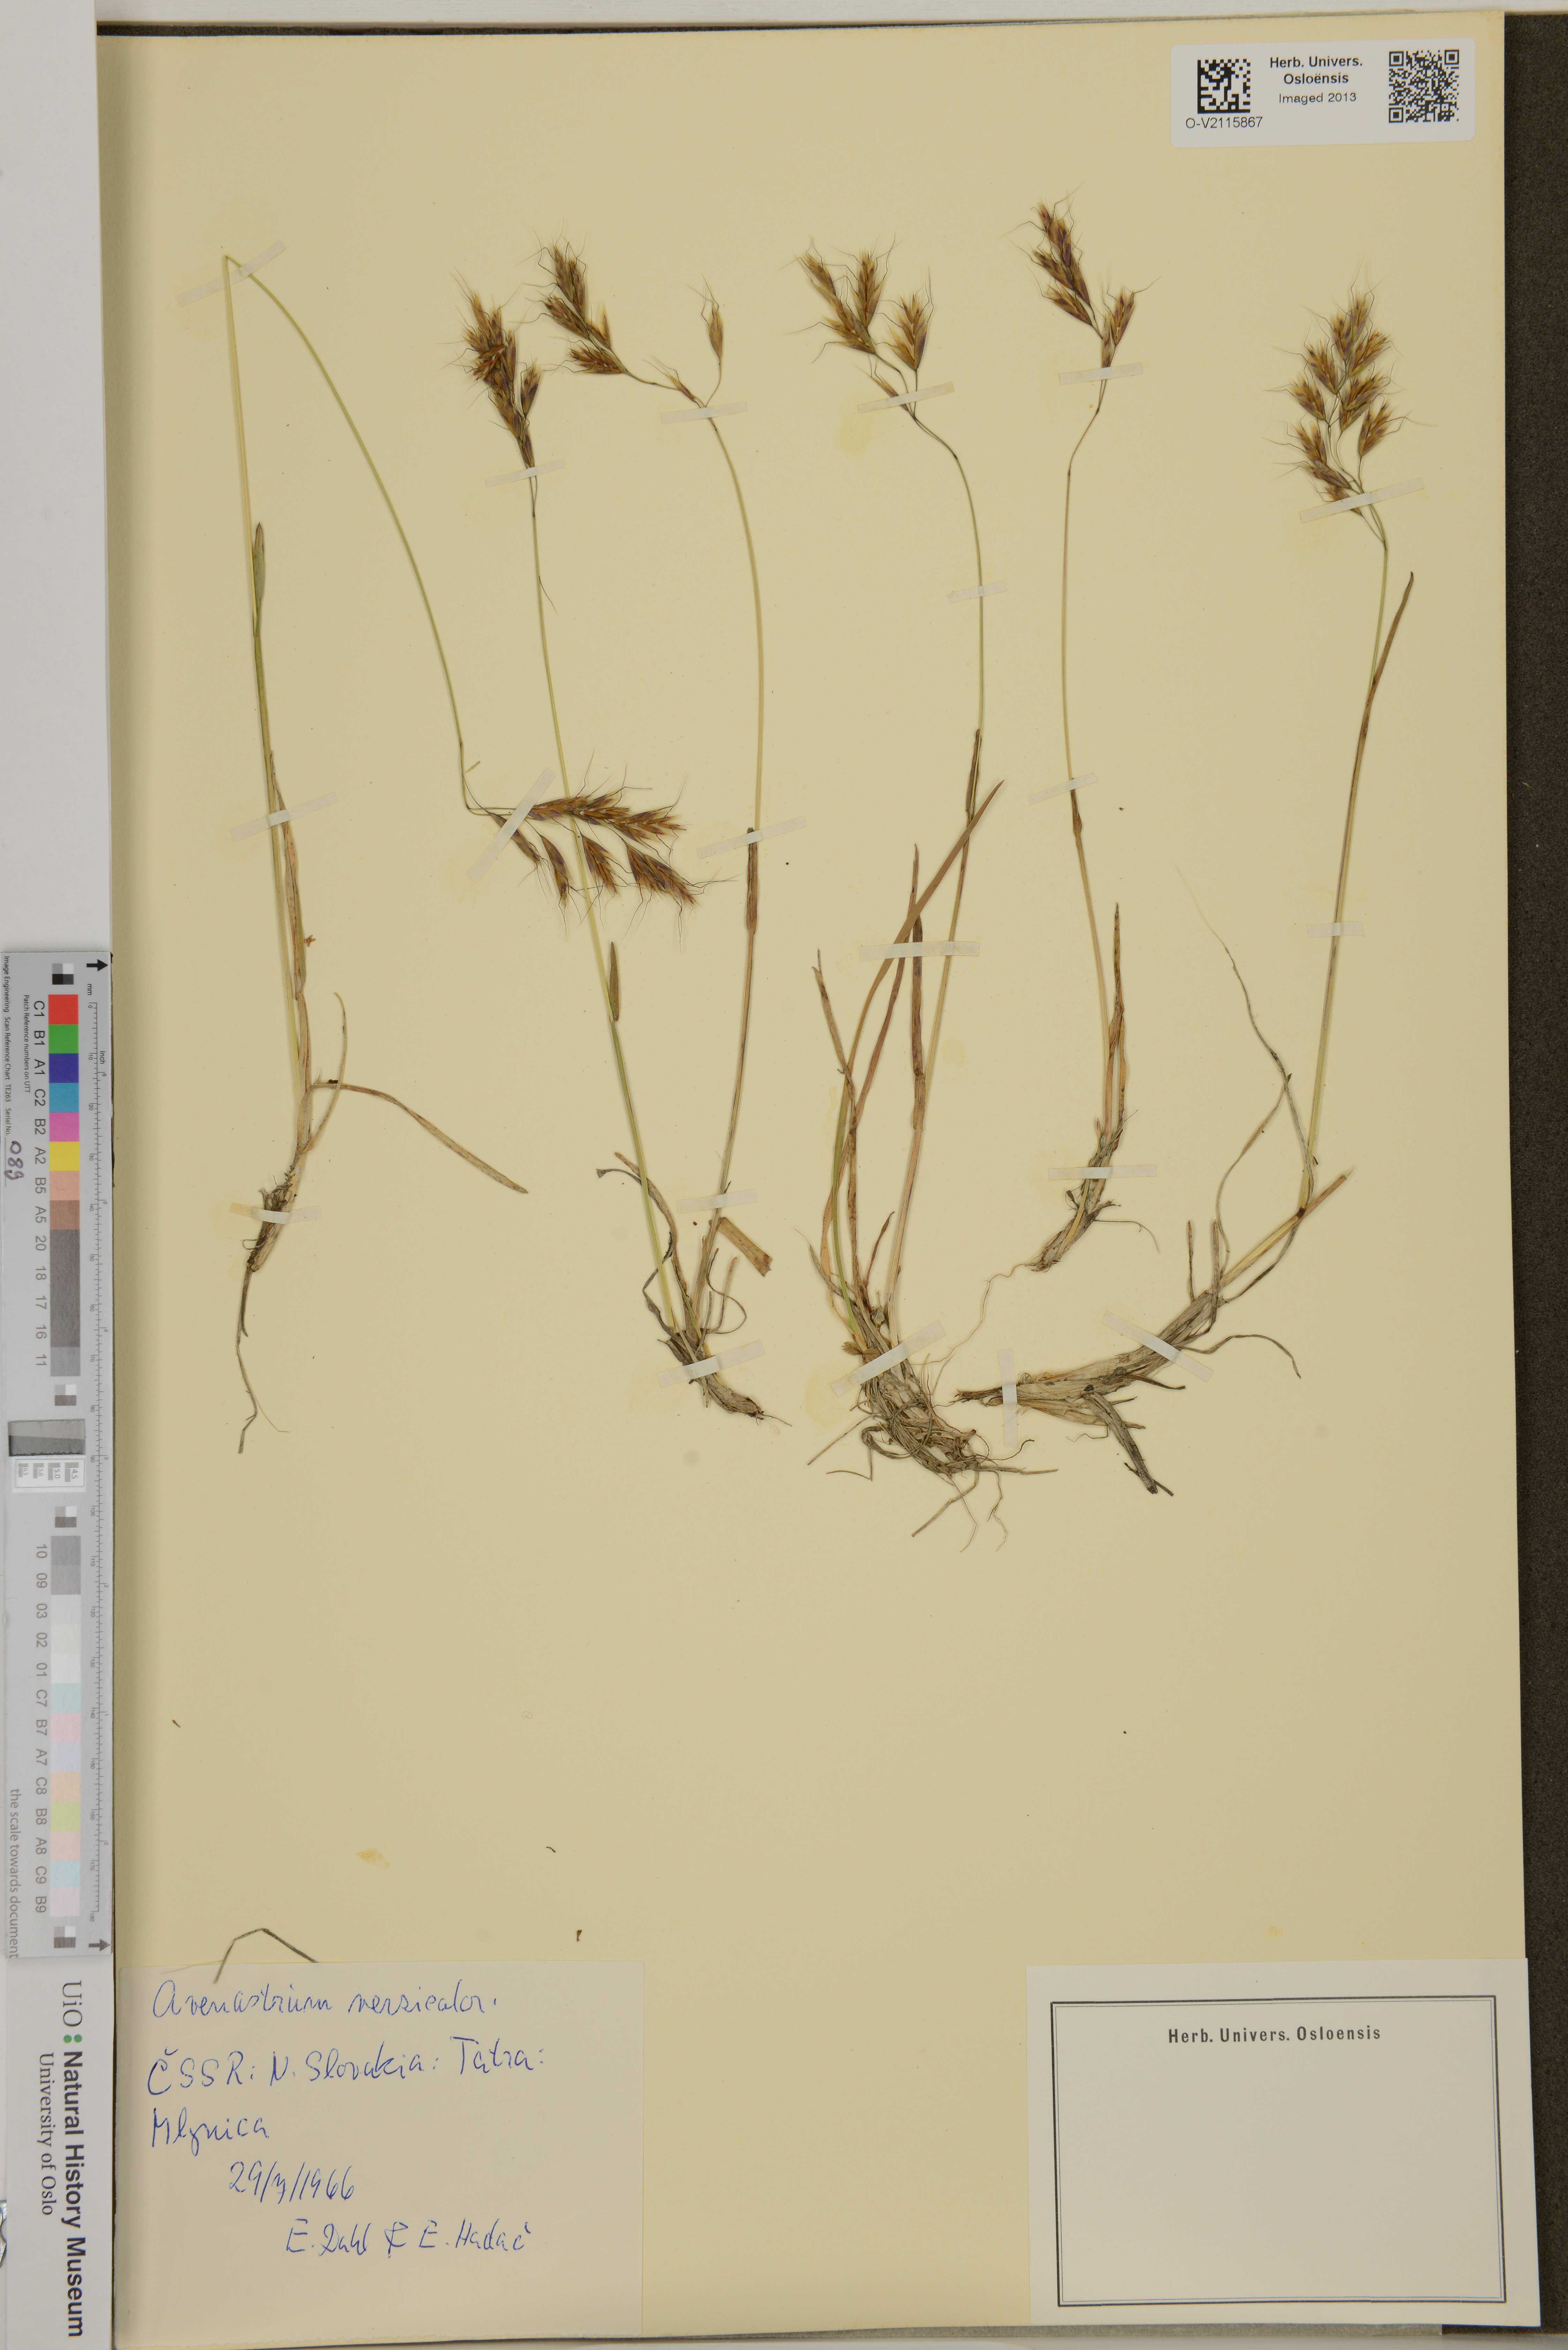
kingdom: Plantae
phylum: Tracheophyta
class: Liliopsida
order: Poales
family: Poaceae
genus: Helictochloa
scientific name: Helictochloa versicolor
